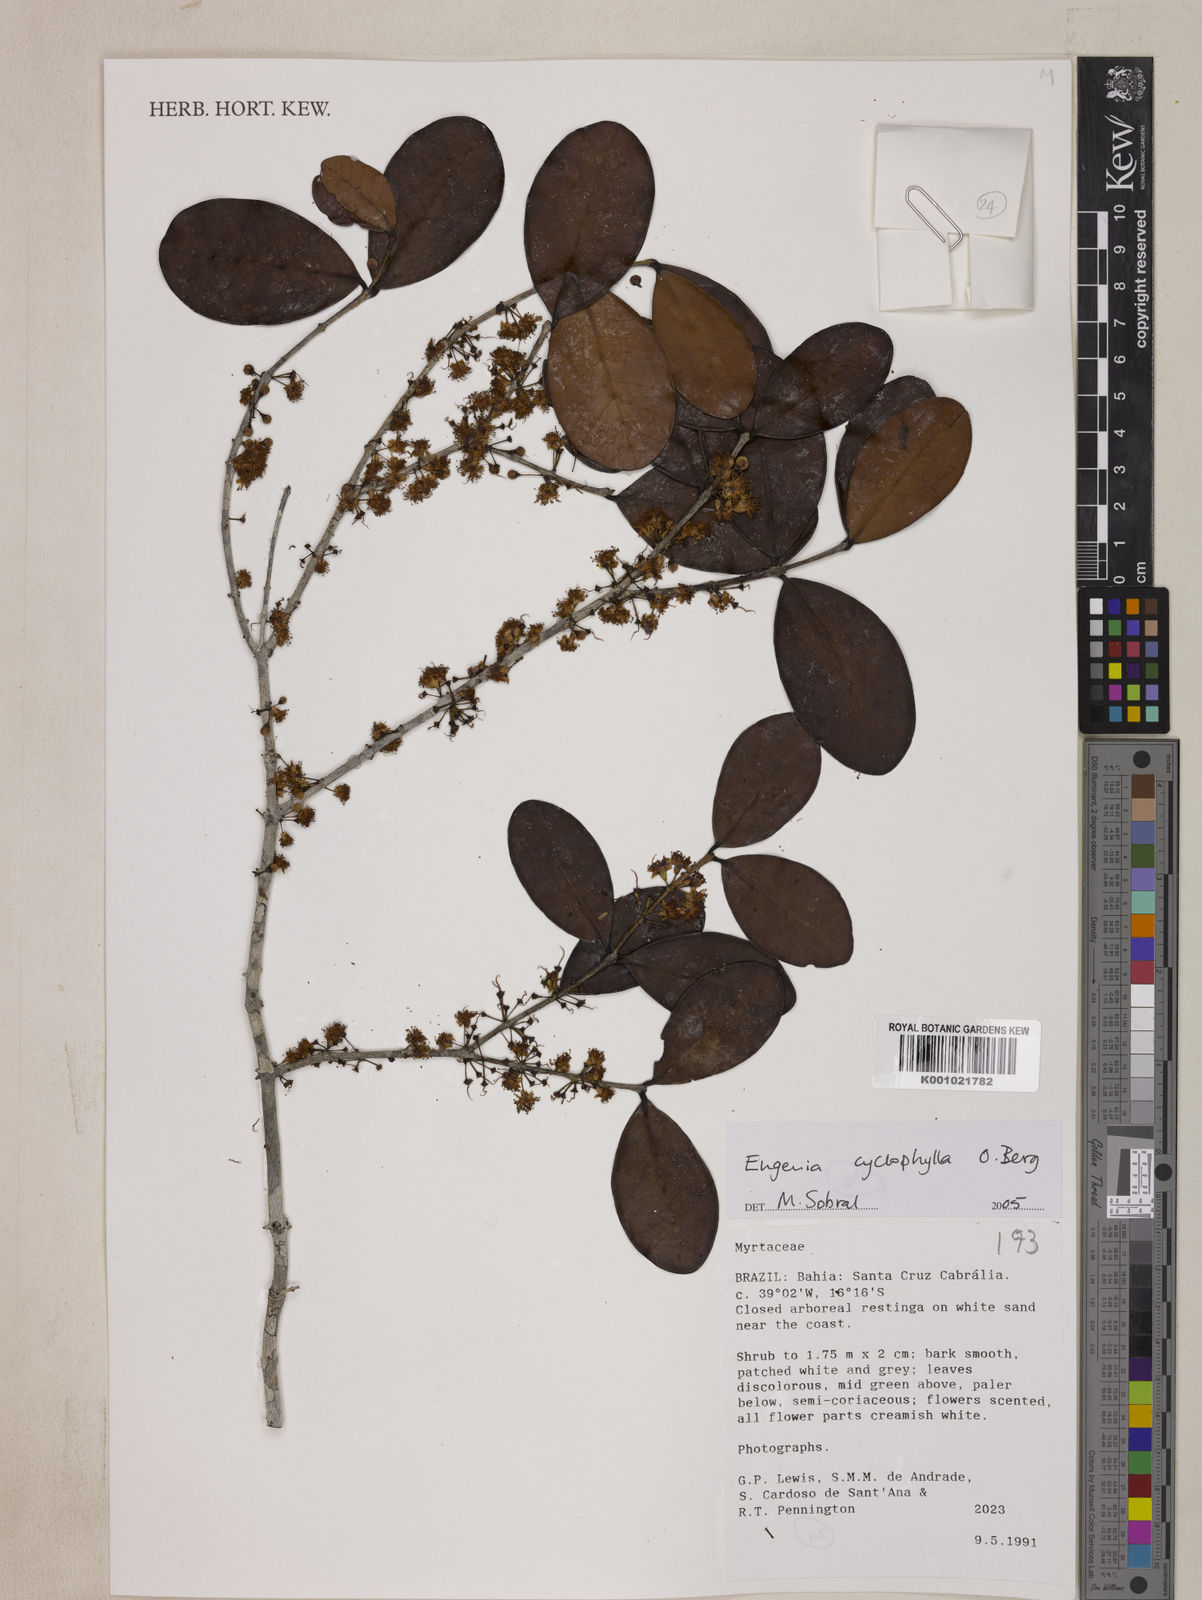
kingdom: Plantae
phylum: Tracheophyta
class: Magnoliopsida
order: Myrtales
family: Myrtaceae
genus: Eugenia
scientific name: Eugenia cyclophylla
